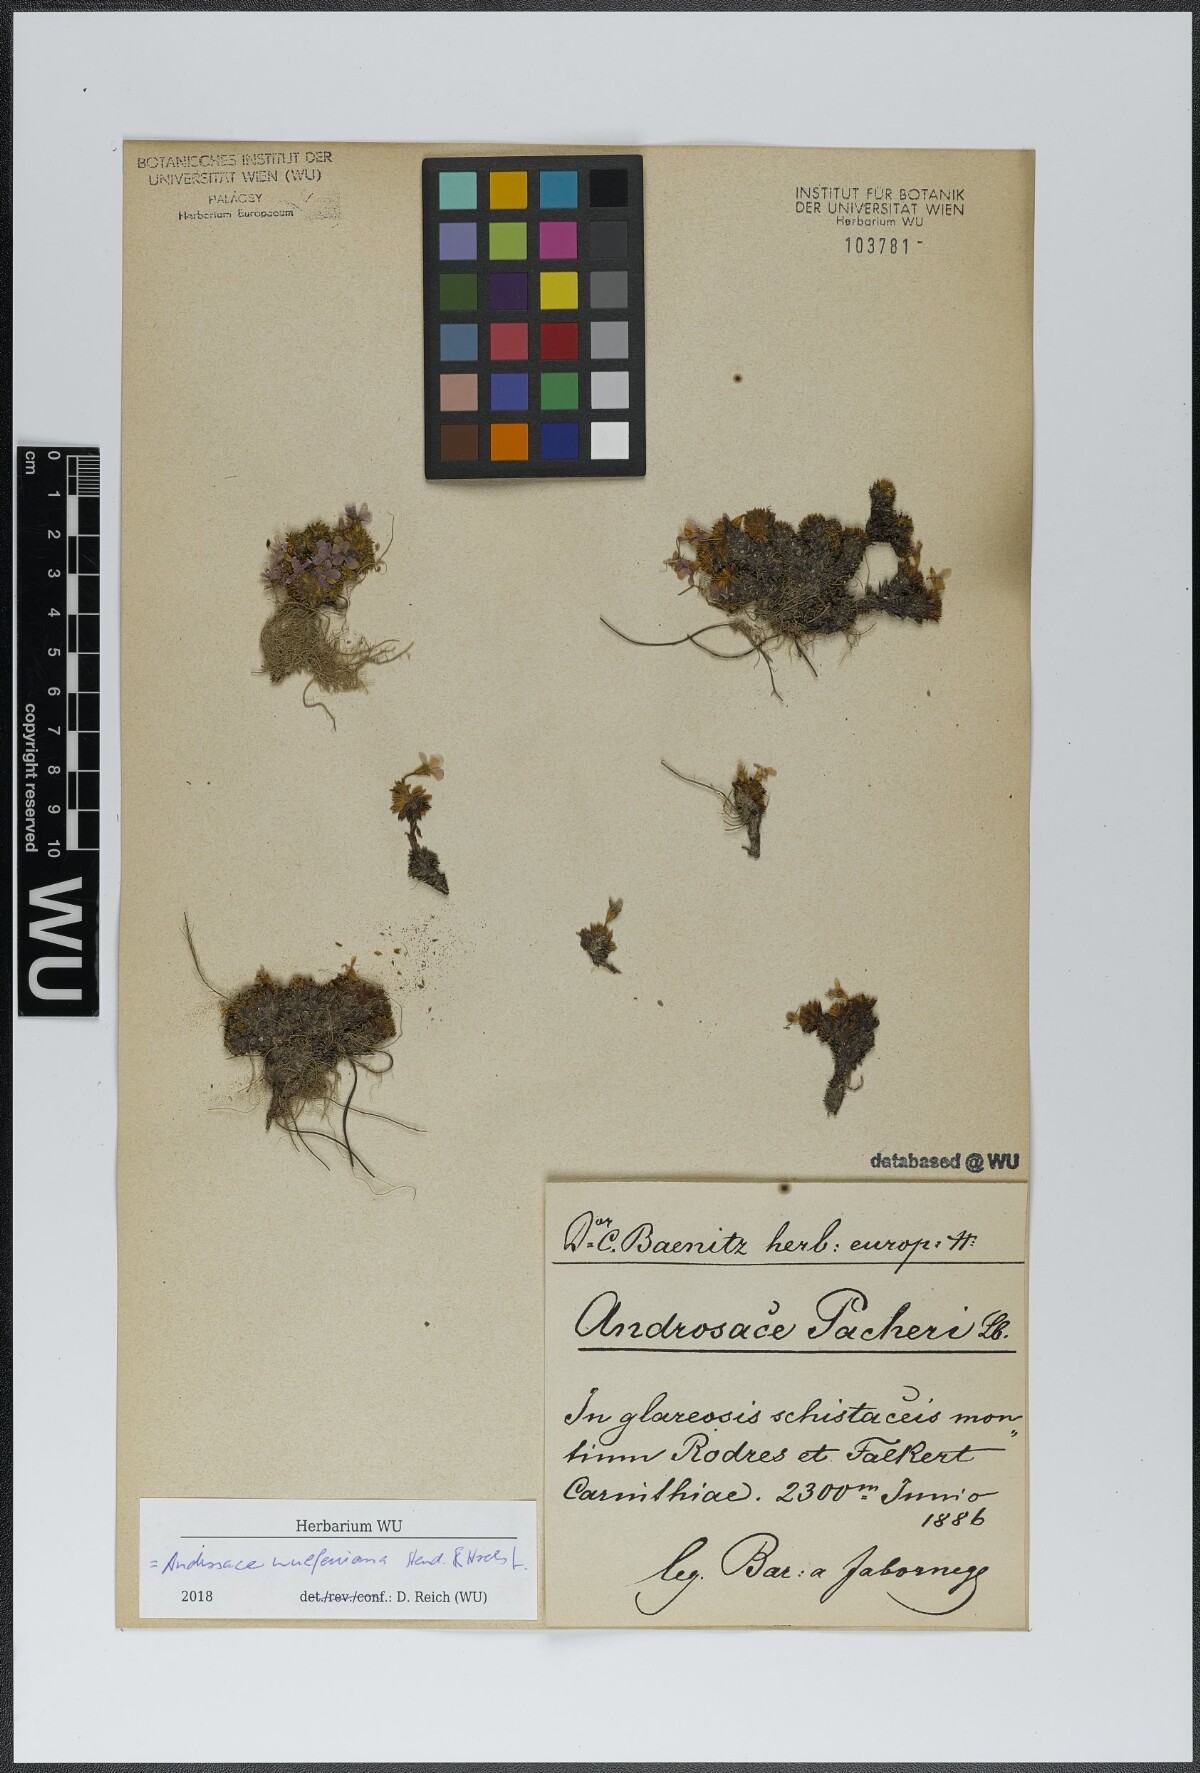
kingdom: Plantae
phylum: Tracheophyta
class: Magnoliopsida
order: Ericales
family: Primulaceae
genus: Androsace
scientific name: Androsace wulfeniana
